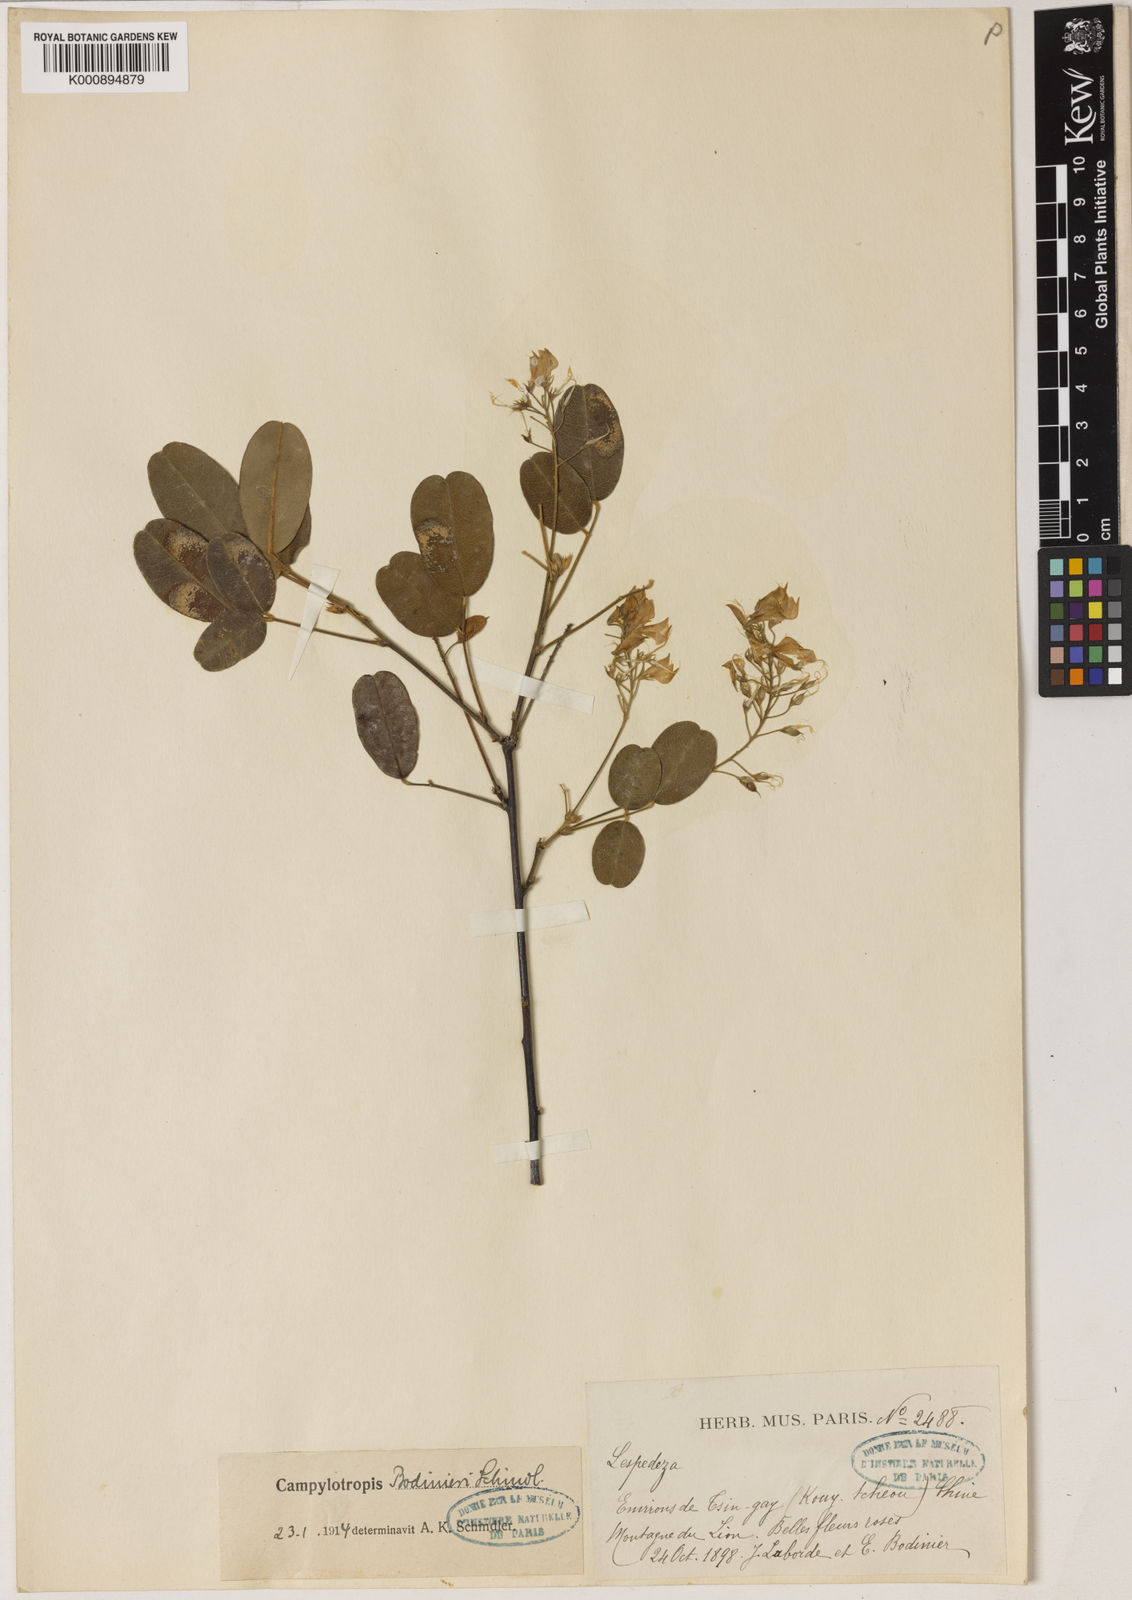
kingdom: Plantae
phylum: Tracheophyta
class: Magnoliopsida
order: Fabales
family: Fabaceae
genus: Campylotropis
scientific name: Campylotropis macrocarpa
